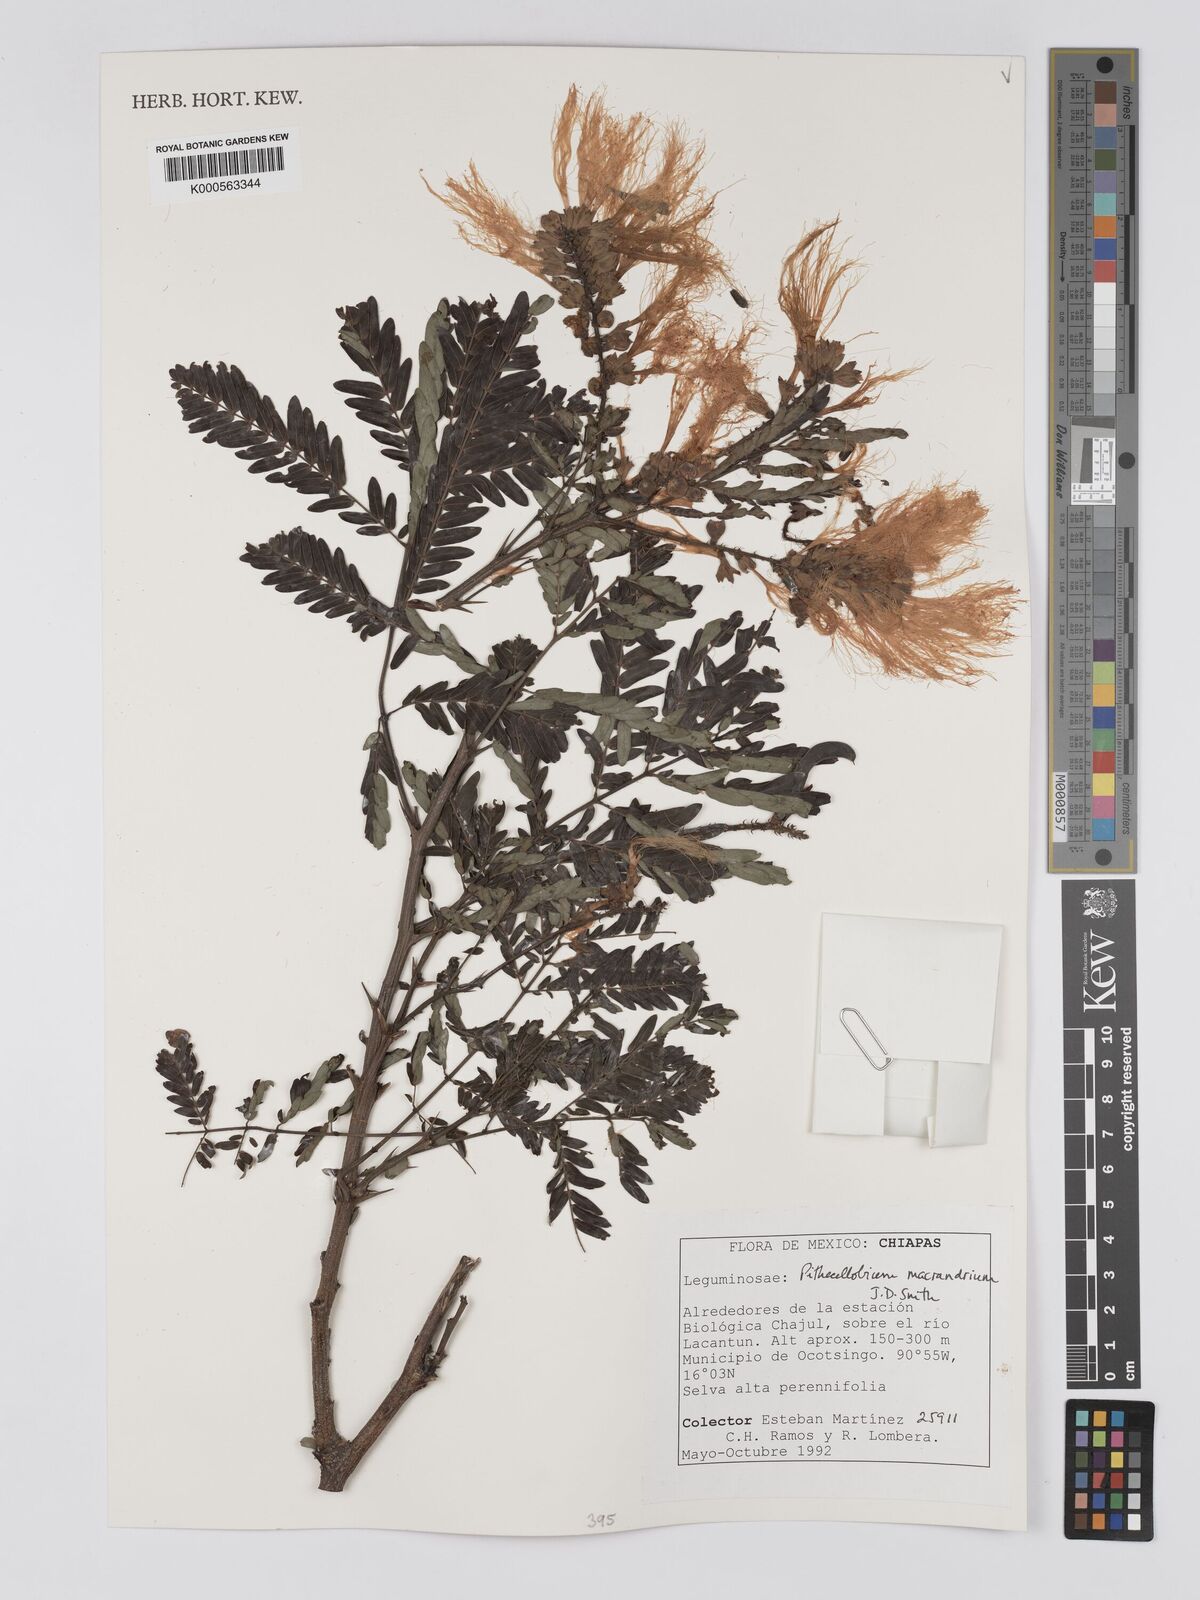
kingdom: Plantae
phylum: Tracheophyta
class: Magnoliopsida
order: Fabales
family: Fabaceae
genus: Pithecellobium
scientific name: Pithecellobium macrandrium
